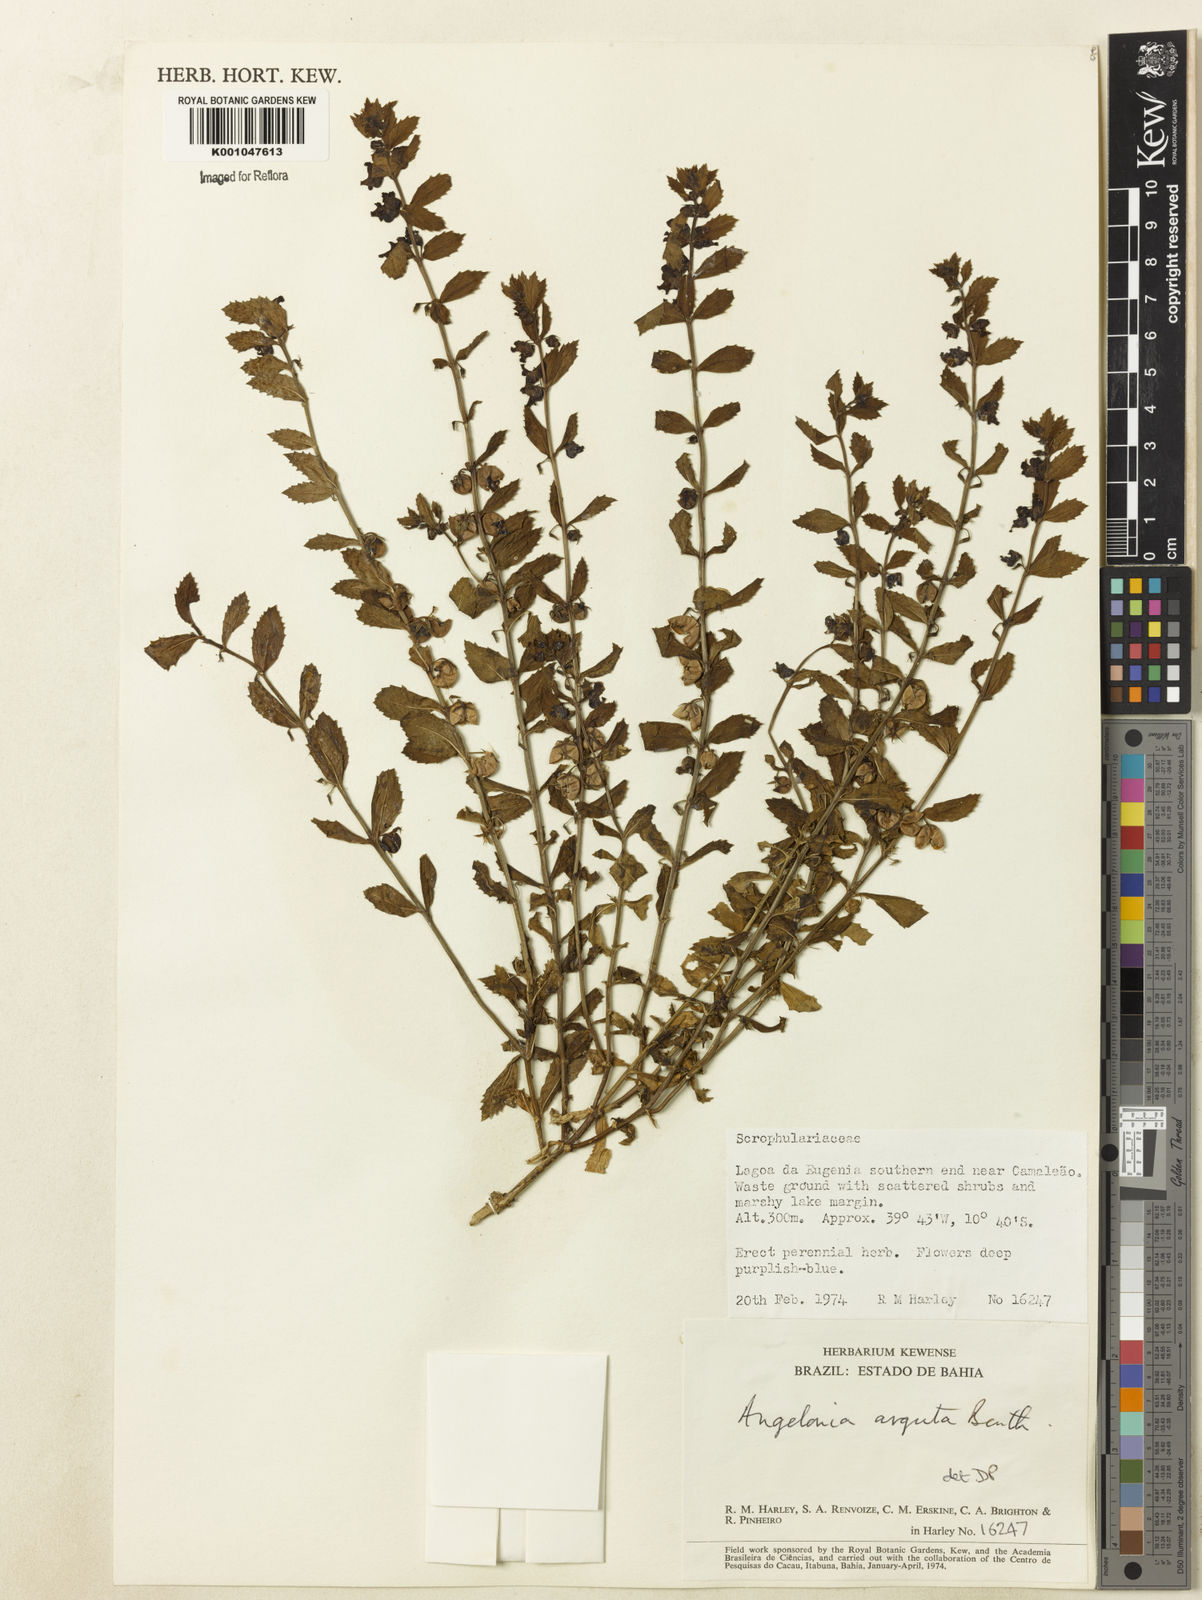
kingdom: Plantae
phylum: Tracheophyta
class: Magnoliopsida
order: Lamiales
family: Plantaginaceae
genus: Angelonia
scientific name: Angelonia arguta
